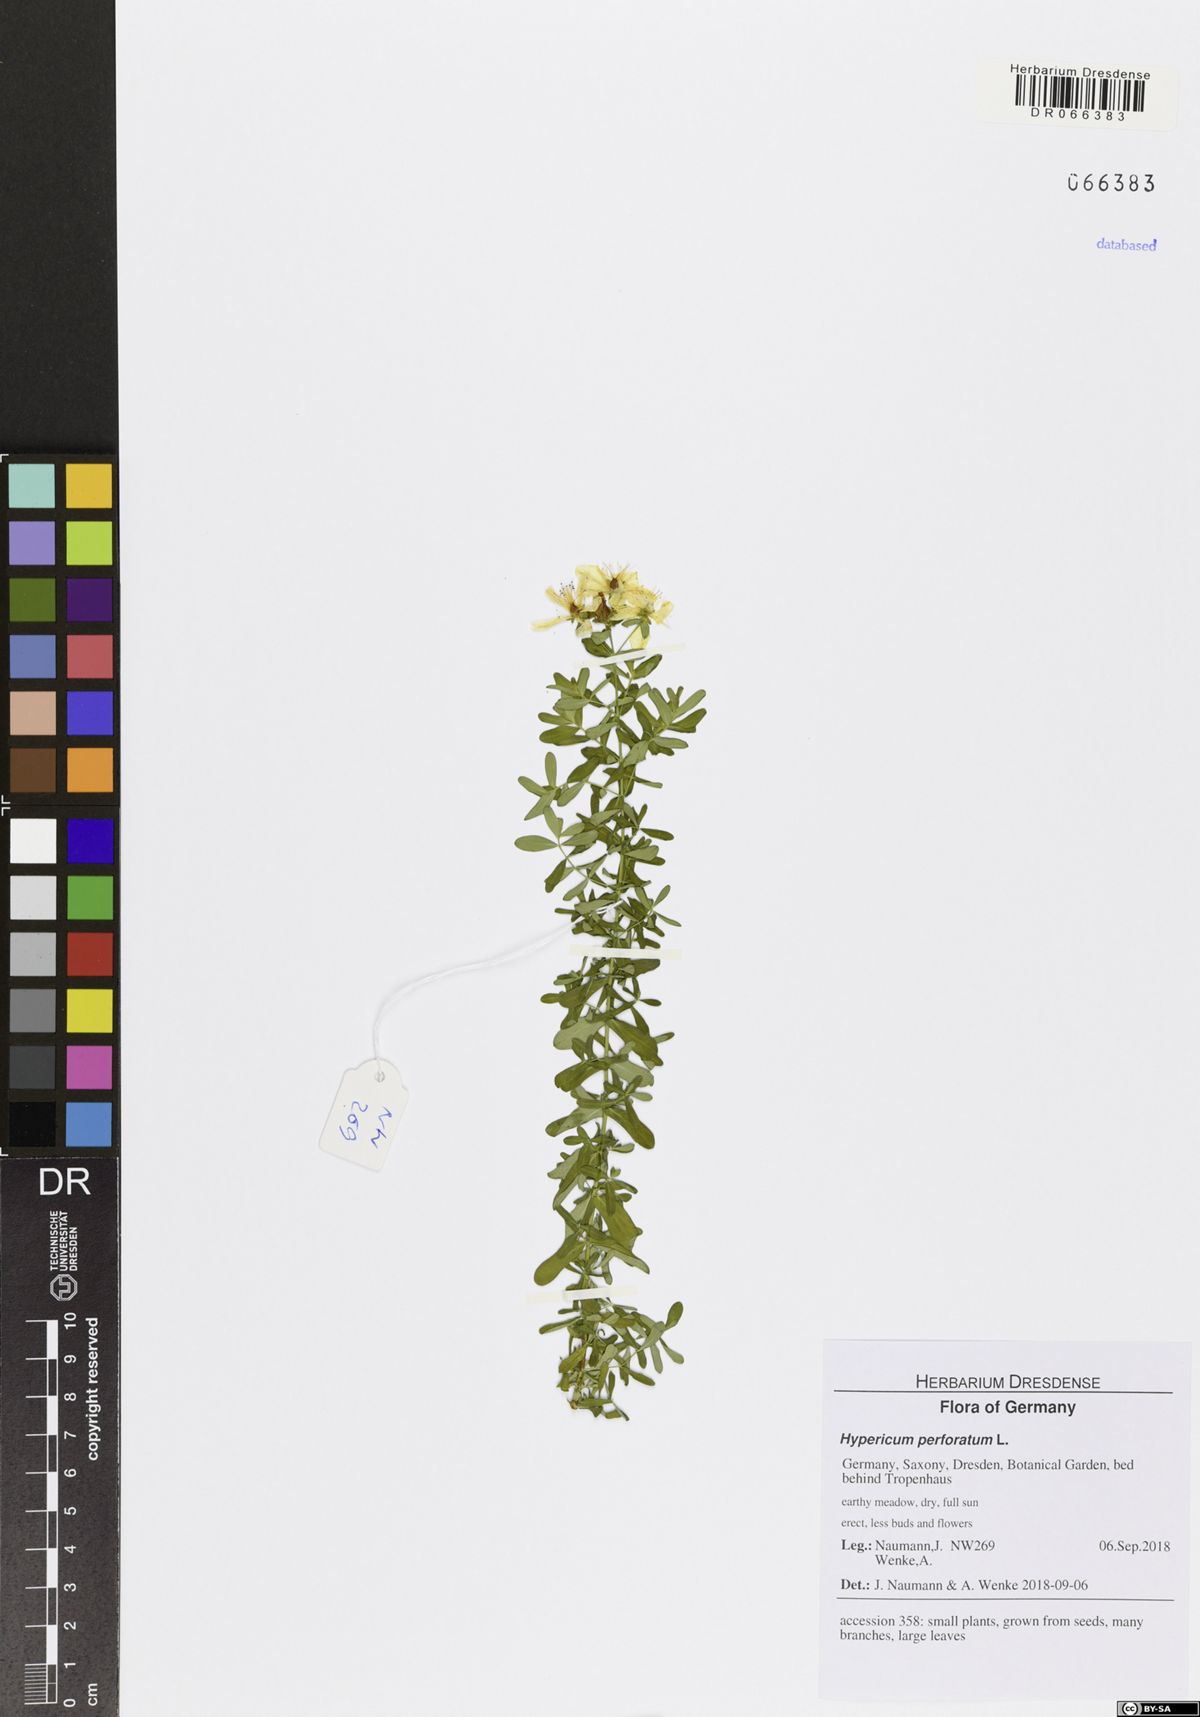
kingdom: Plantae
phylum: Tracheophyta
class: Magnoliopsida
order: Malpighiales
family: Hypericaceae
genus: Hypericum
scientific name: Hypericum perforatum
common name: Common st. johnswort
